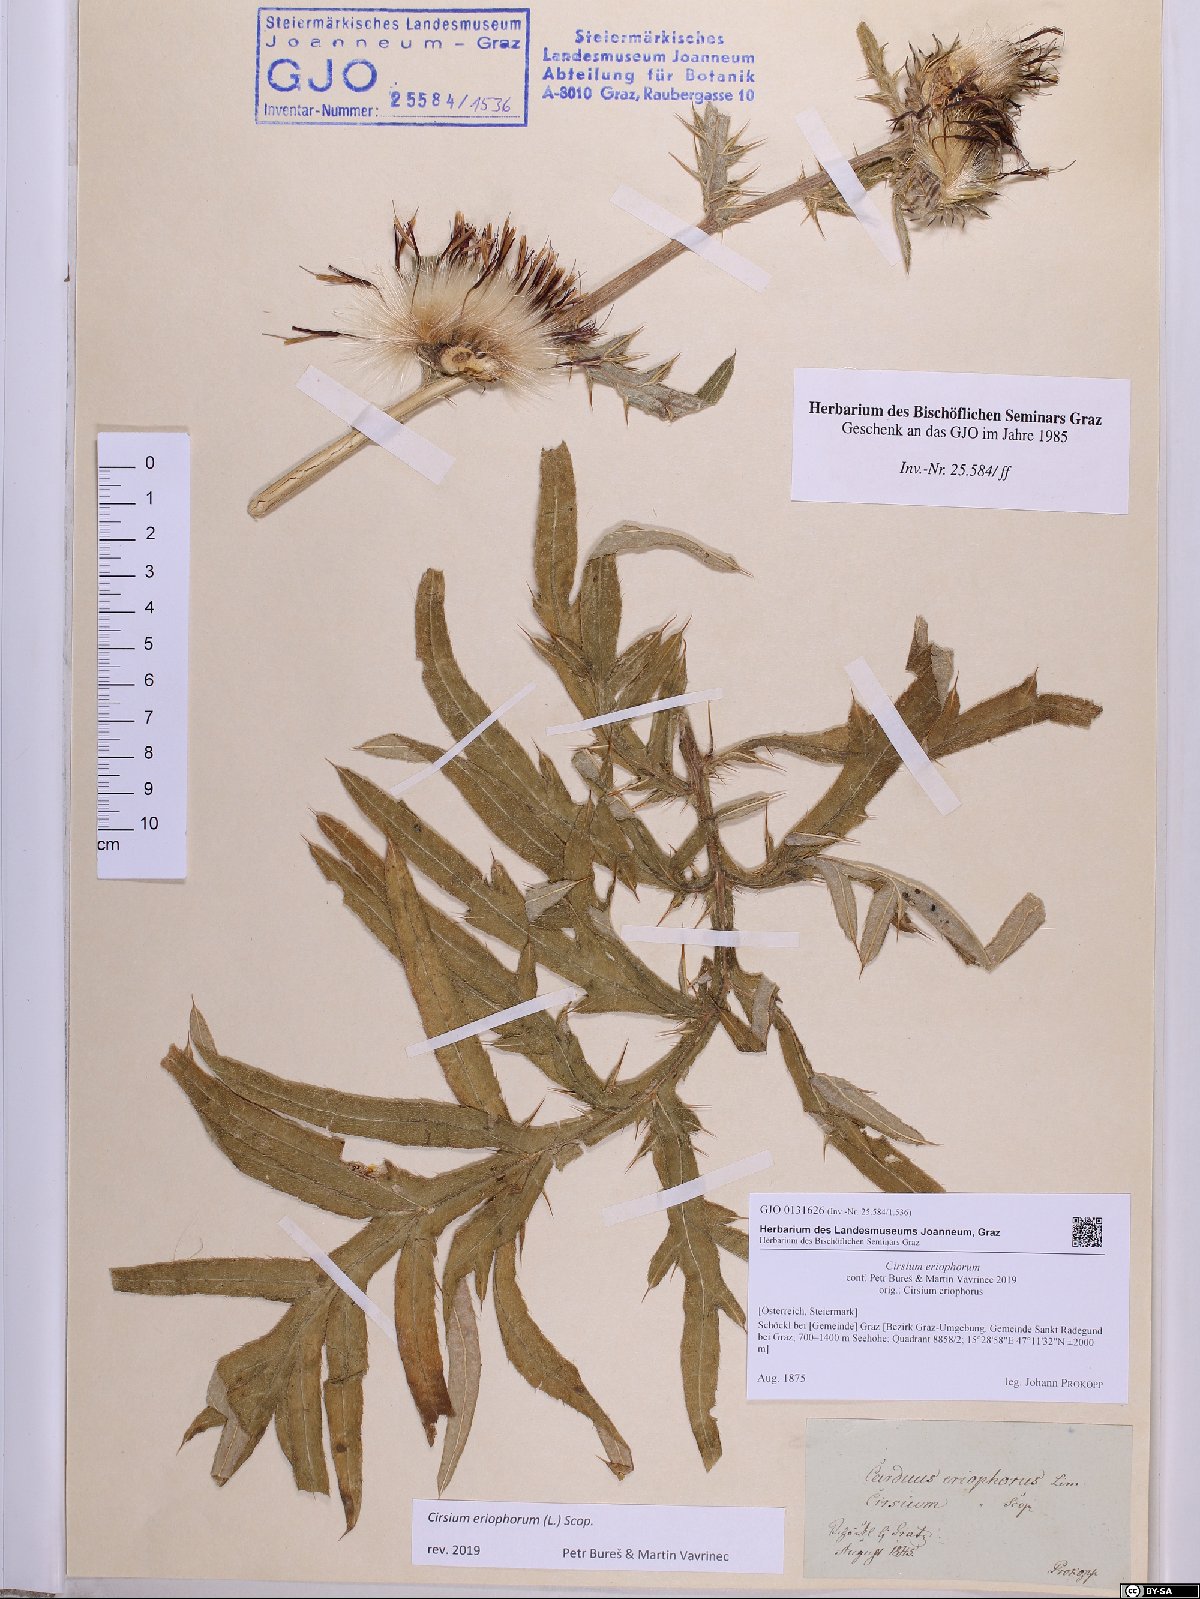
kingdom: Plantae
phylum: Tracheophyta
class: Magnoliopsida
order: Asterales
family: Asteraceae
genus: Lophiolepis
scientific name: Lophiolepis eriophora
